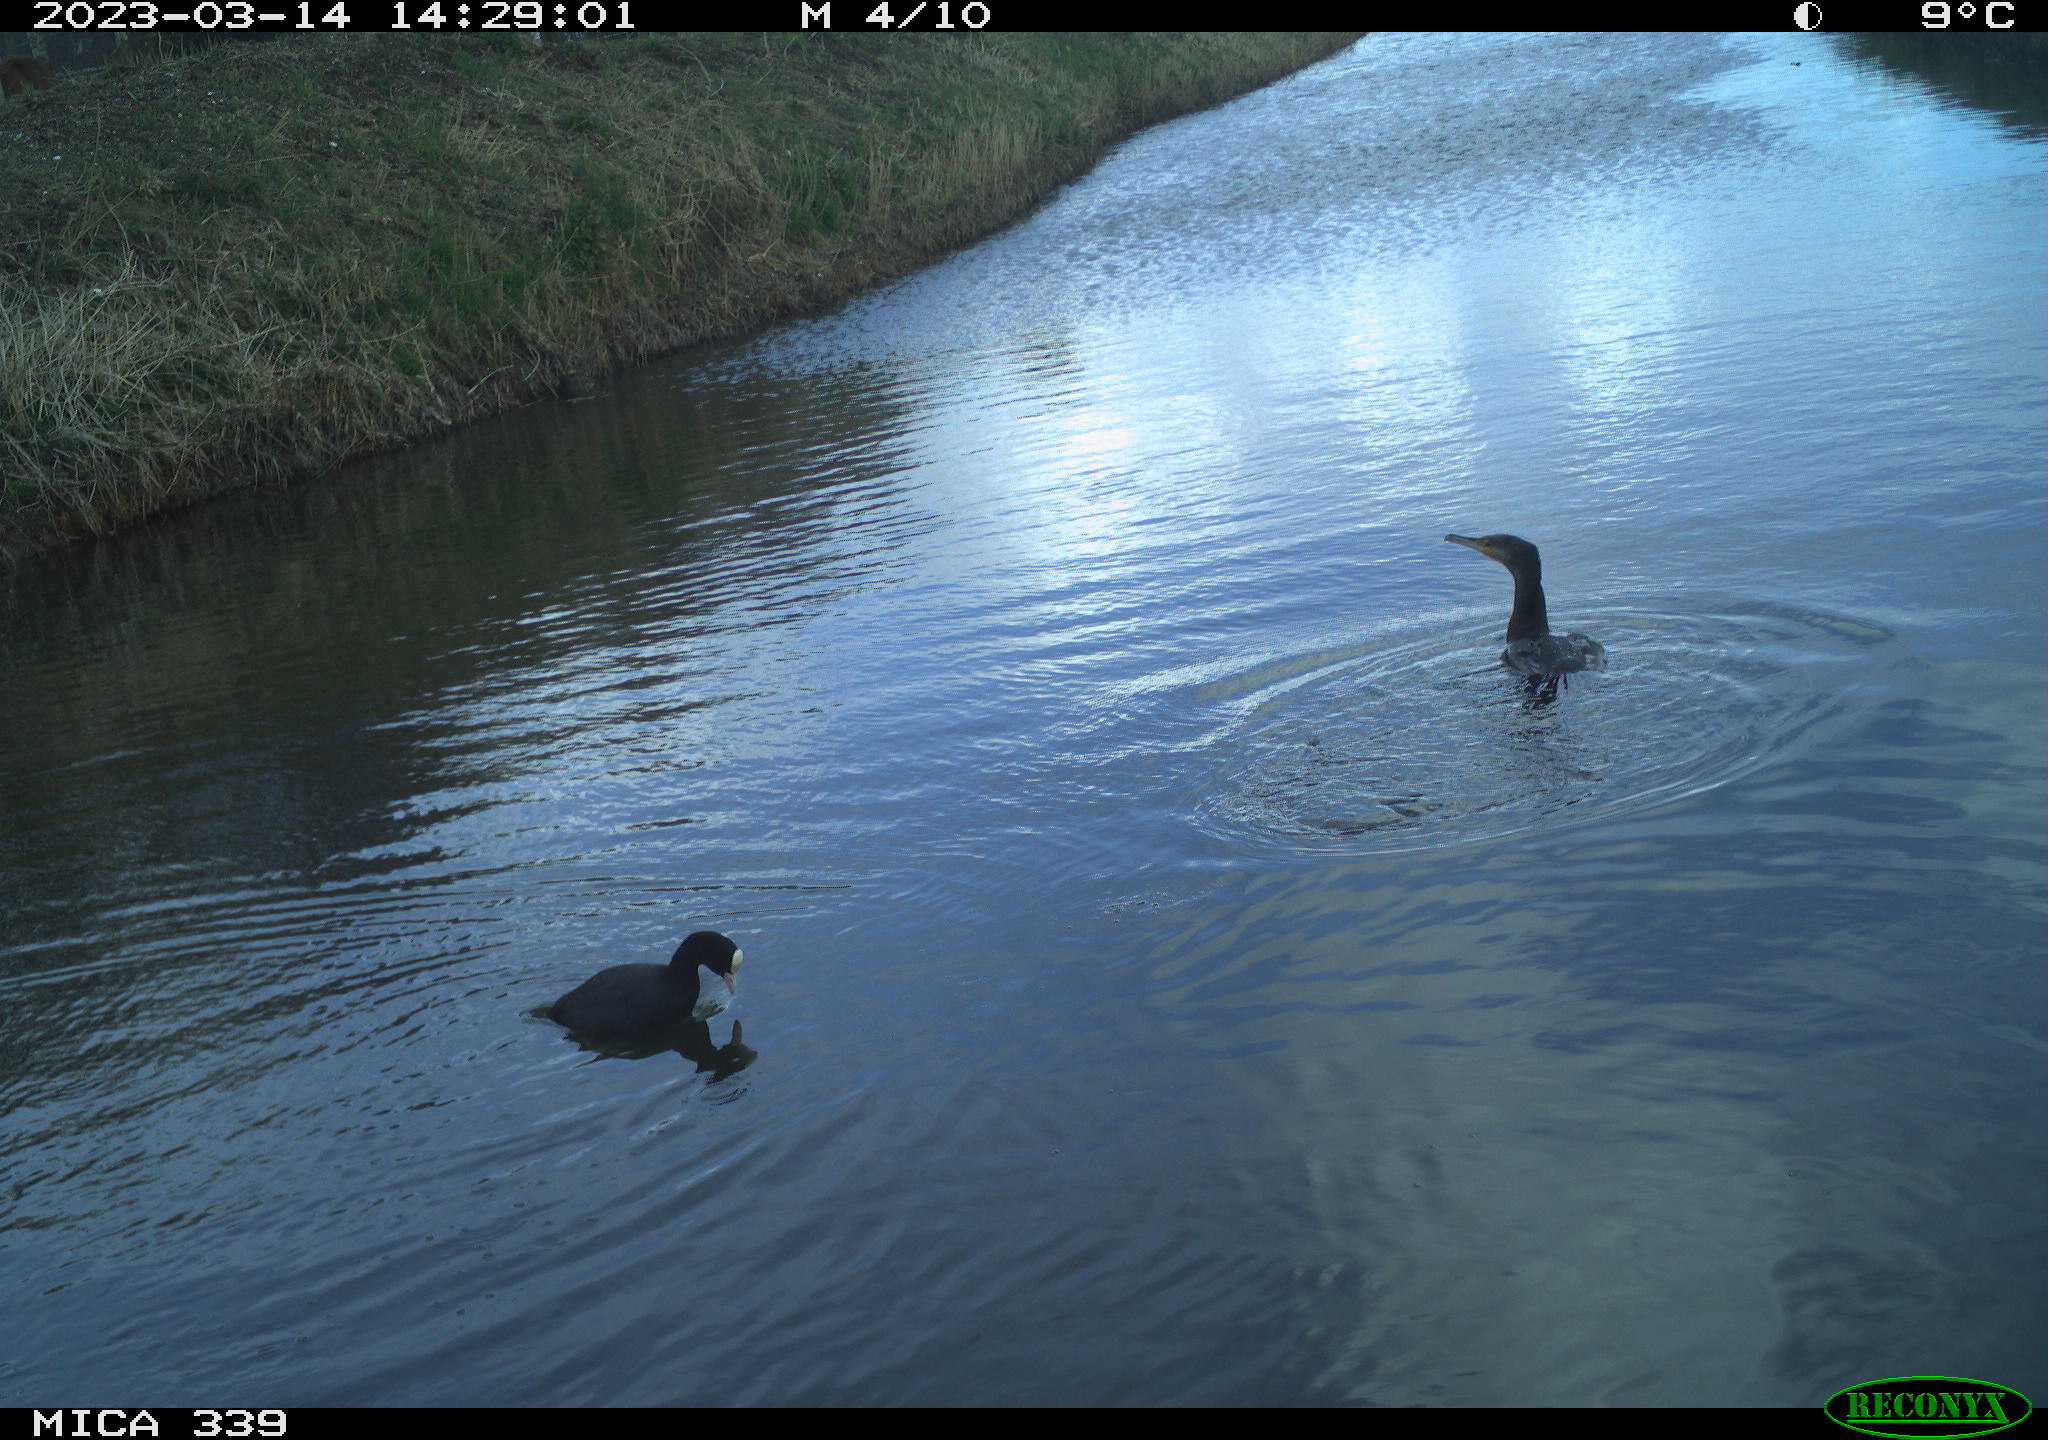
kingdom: Animalia
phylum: Chordata
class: Aves
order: Anseriformes
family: Anatidae
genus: Anas
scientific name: Anas
